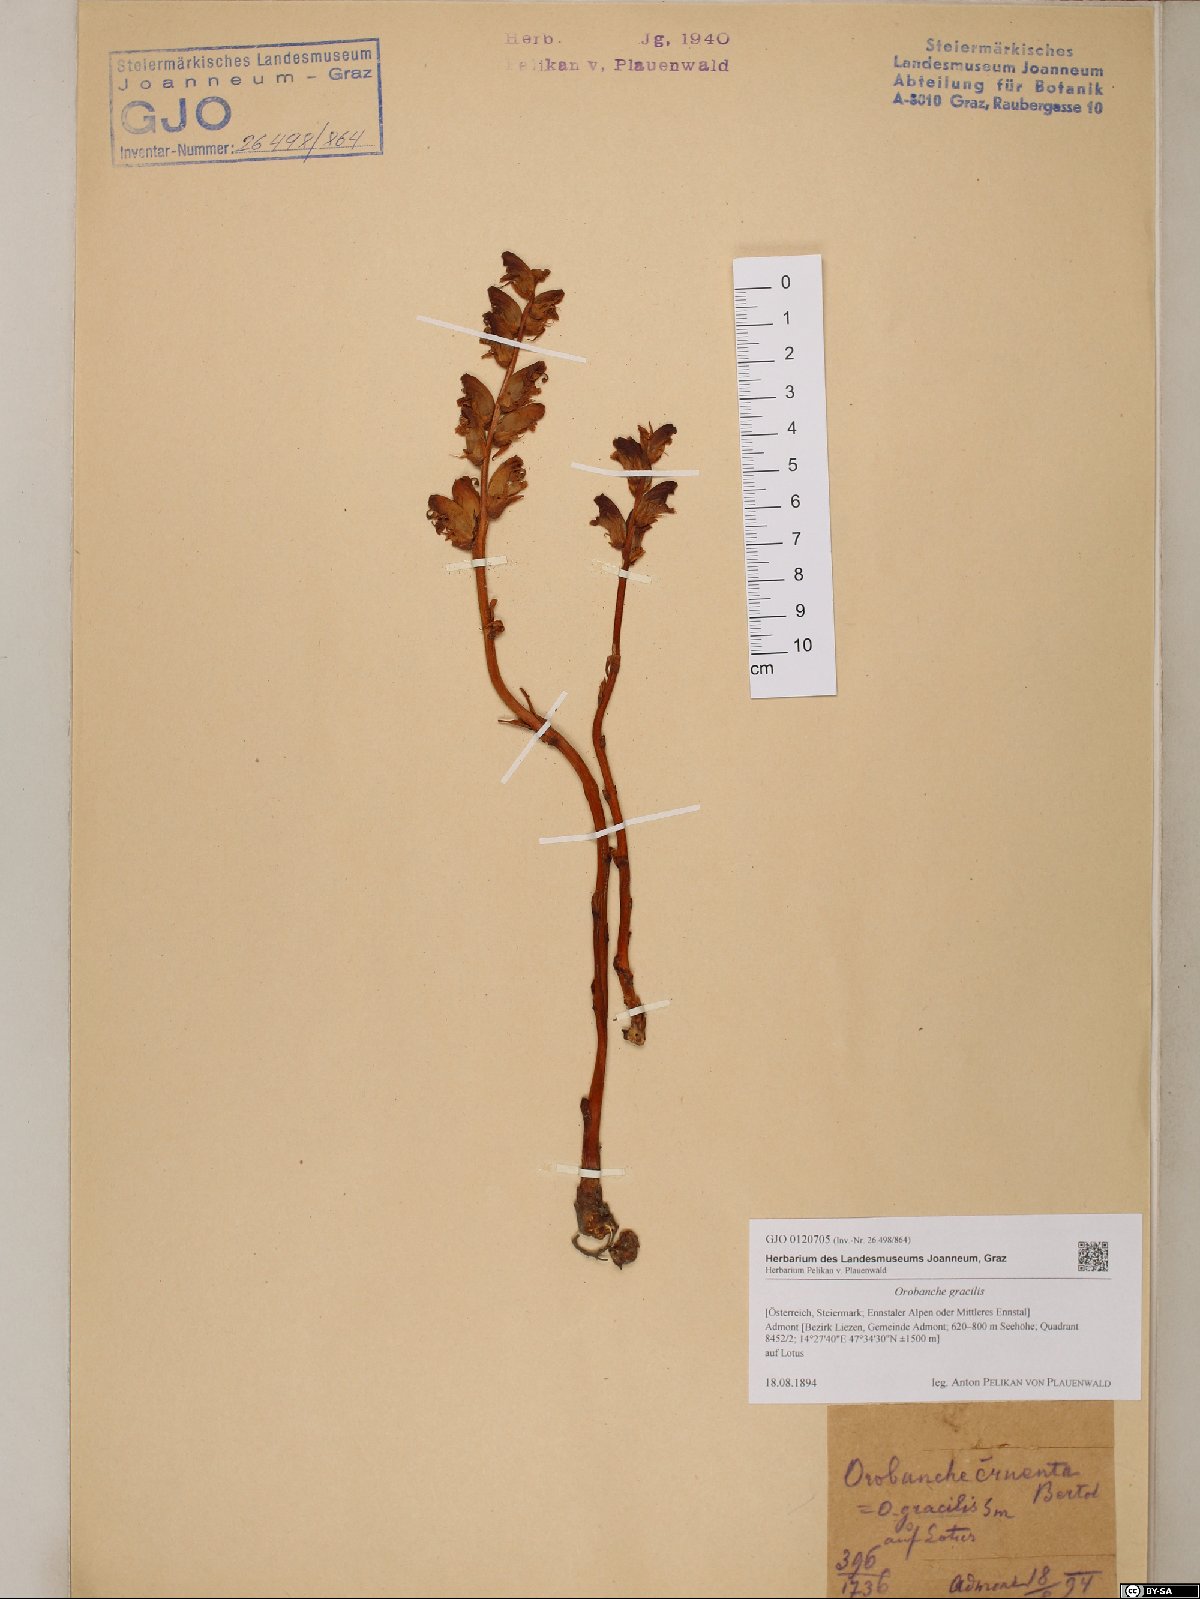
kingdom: Plantae
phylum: Tracheophyta
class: Magnoliopsida
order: Lamiales
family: Orobanchaceae
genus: Orobanche
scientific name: Orobanche gracilis
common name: Slender broomrape
